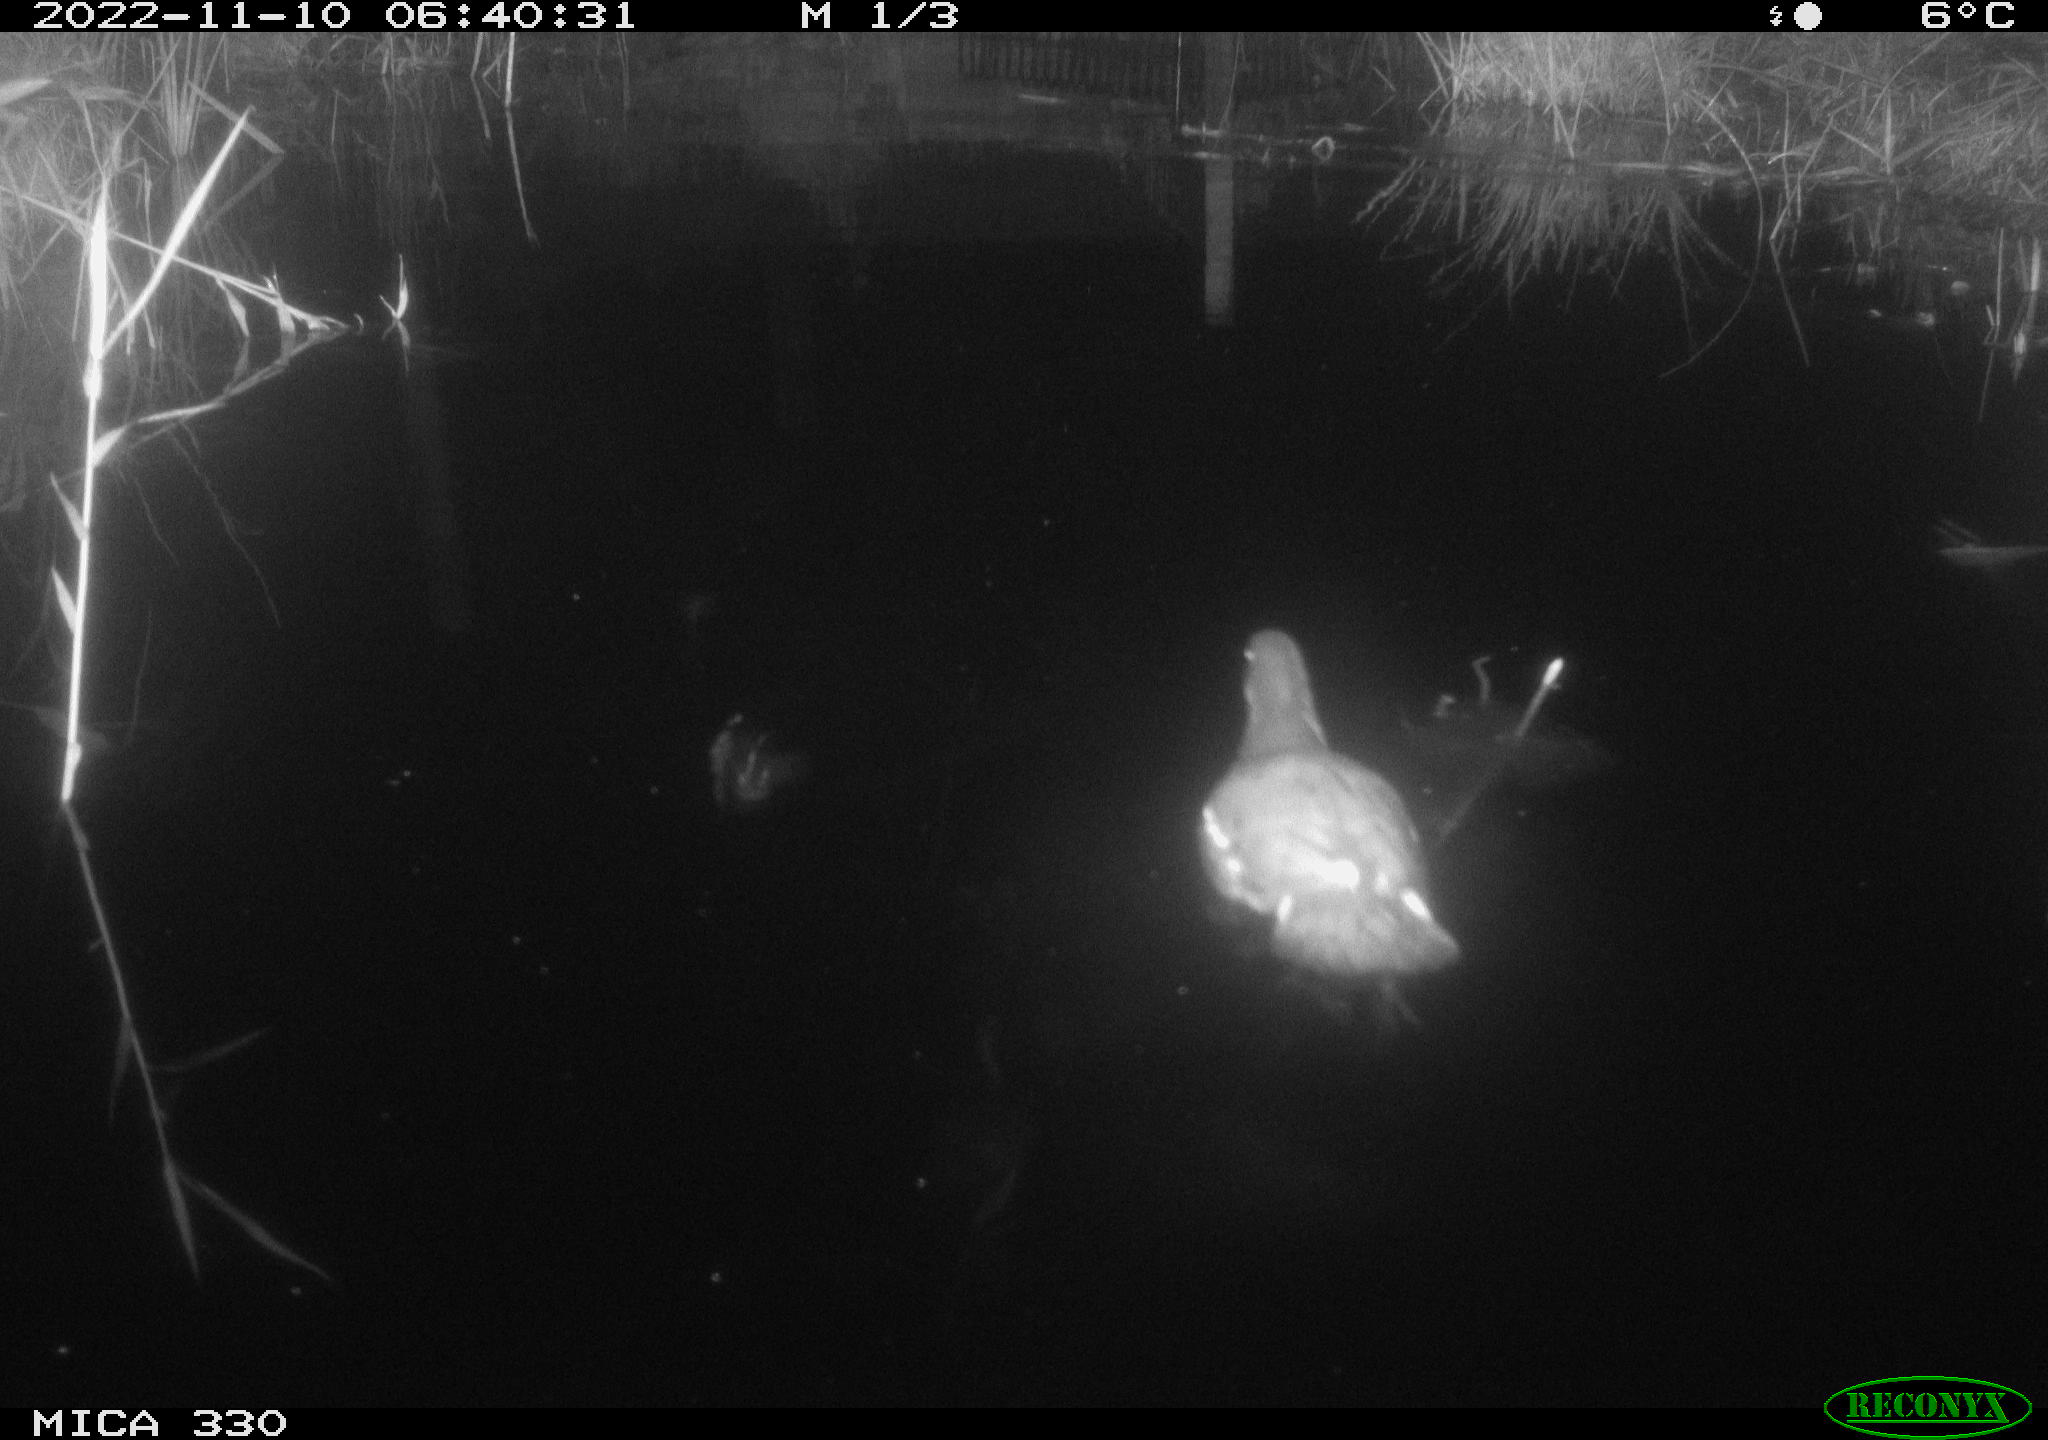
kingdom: Animalia
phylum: Chordata
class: Aves
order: Gruiformes
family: Rallidae
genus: Gallinula
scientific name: Gallinula chloropus
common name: Common moorhen
